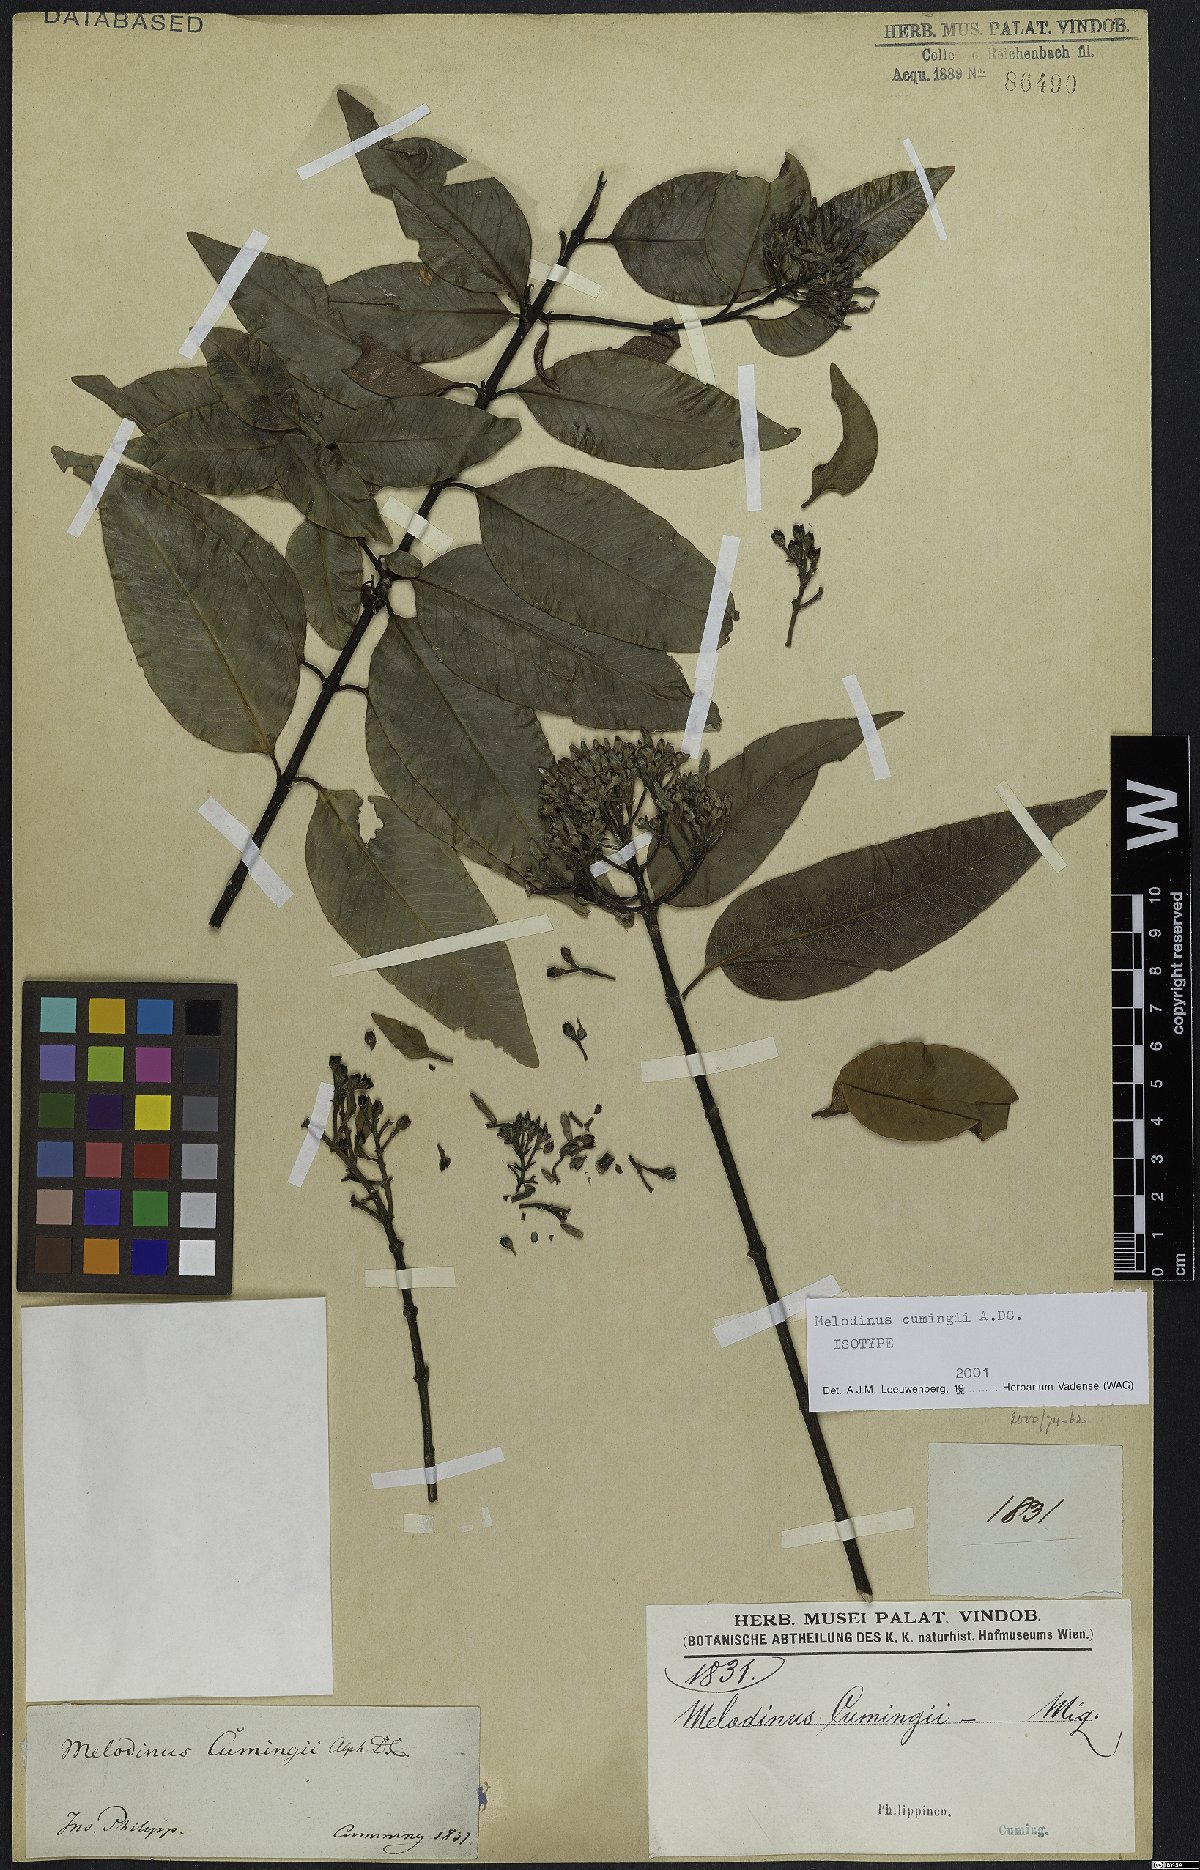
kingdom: Plantae
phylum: Tracheophyta
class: Magnoliopsida
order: Gentianales
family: Apocynaceae
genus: Melodinus
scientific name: Melodinus cumingii
